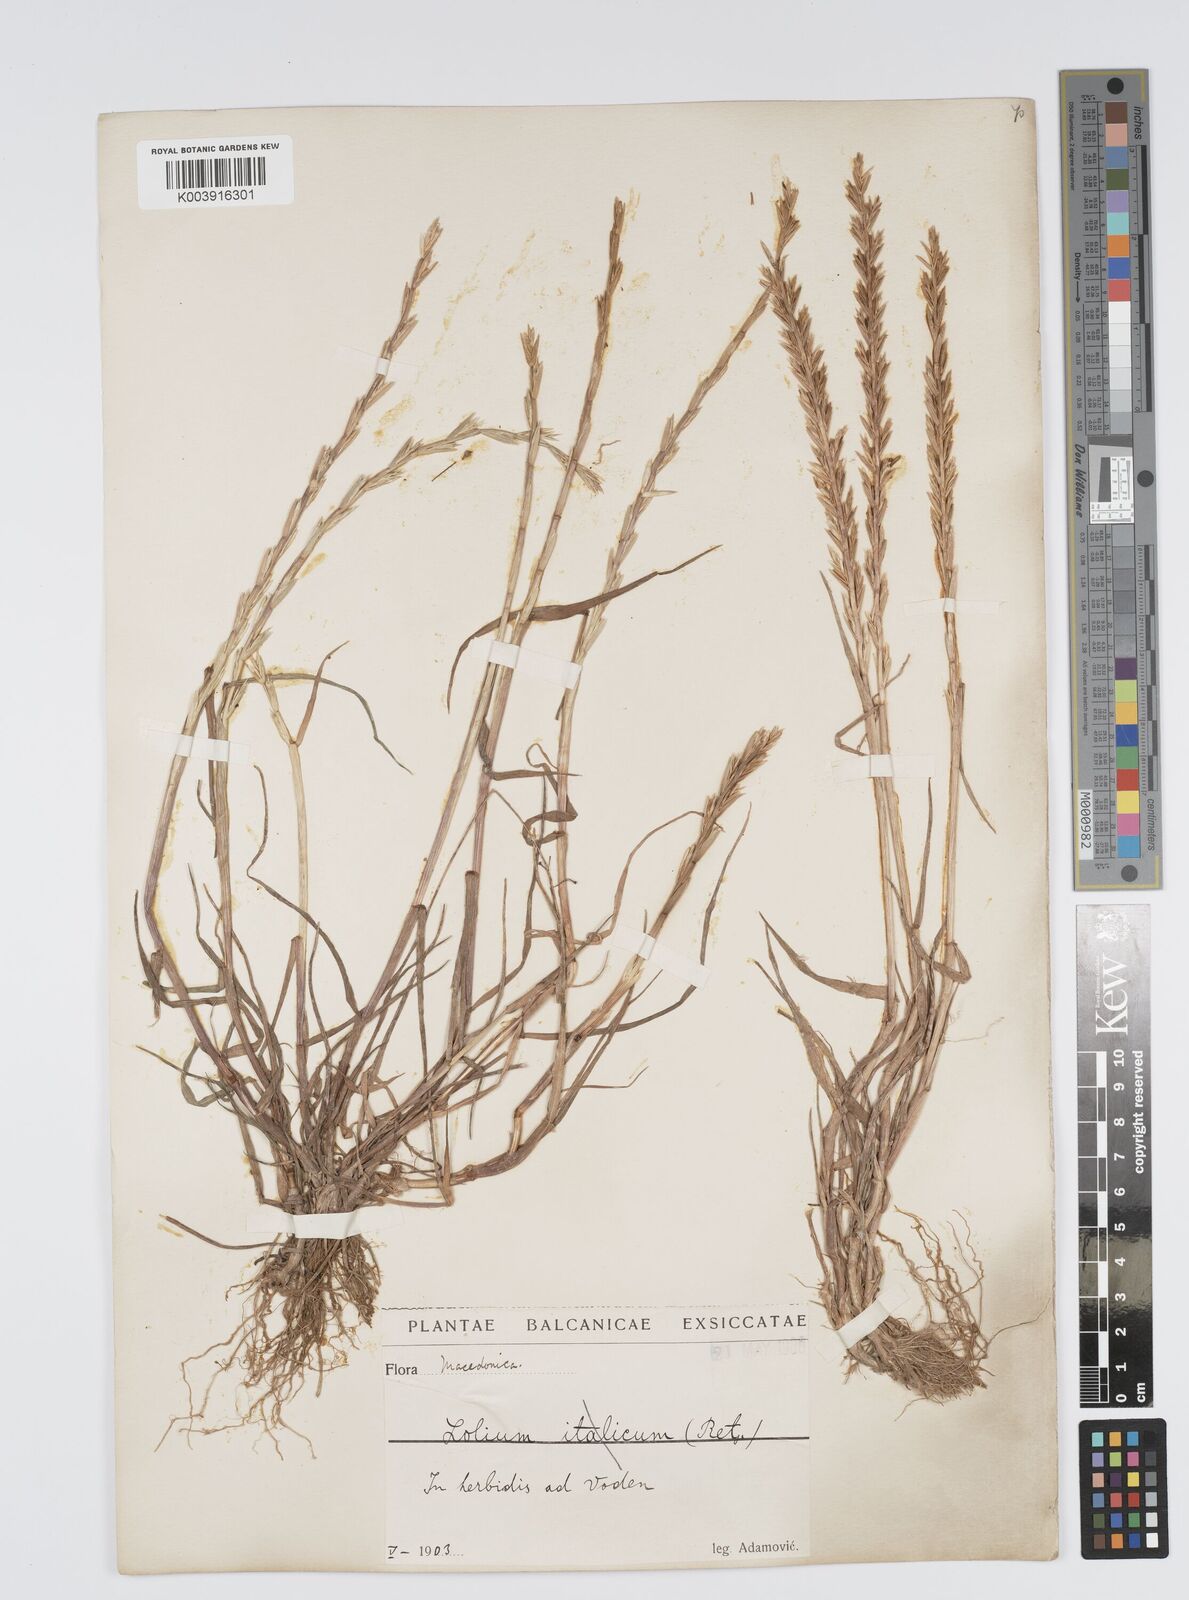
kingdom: Plantae
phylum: Tracheophyta
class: Liliopsida
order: Poales
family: Poaceae
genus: Lolium
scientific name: Lolium rigidum
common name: Wimmera ryegrass
